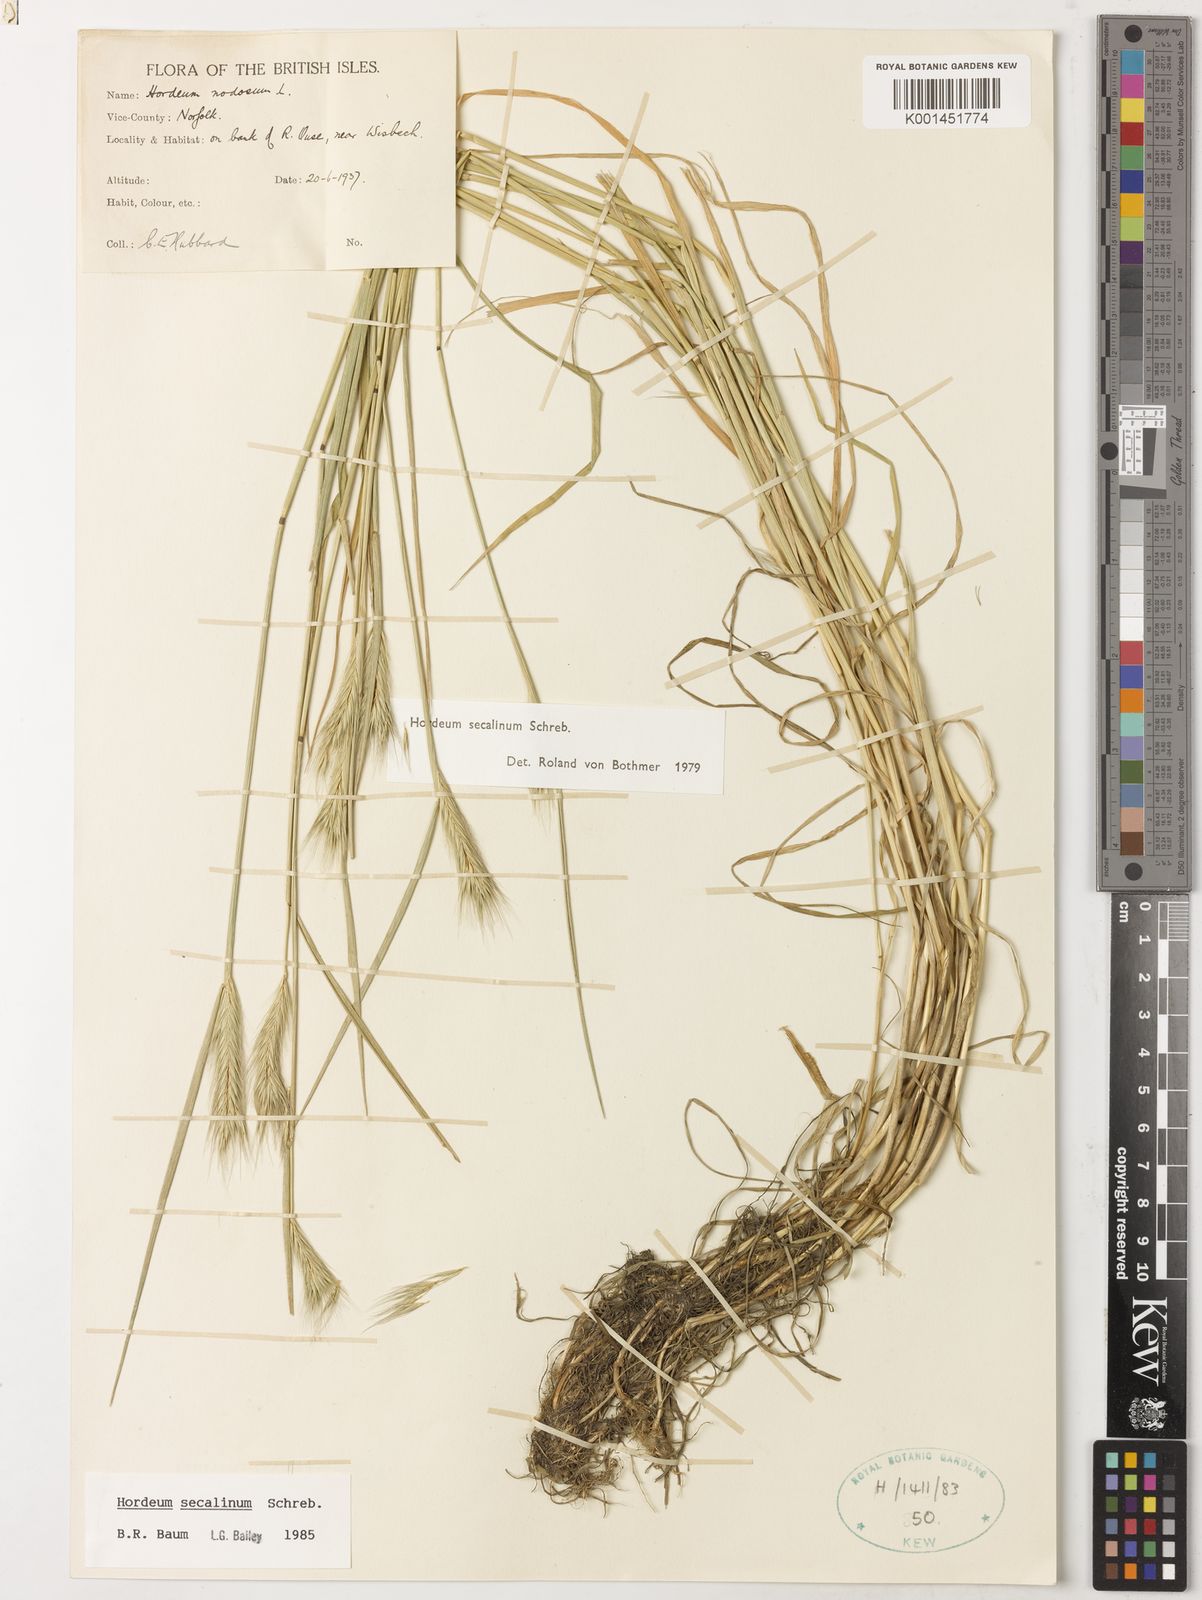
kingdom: Plantae
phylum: Tracheophyta
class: Liliopsida
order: Poales
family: Poaceae
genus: Hordeum
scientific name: Hordeum secalinum
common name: Meadow barley
